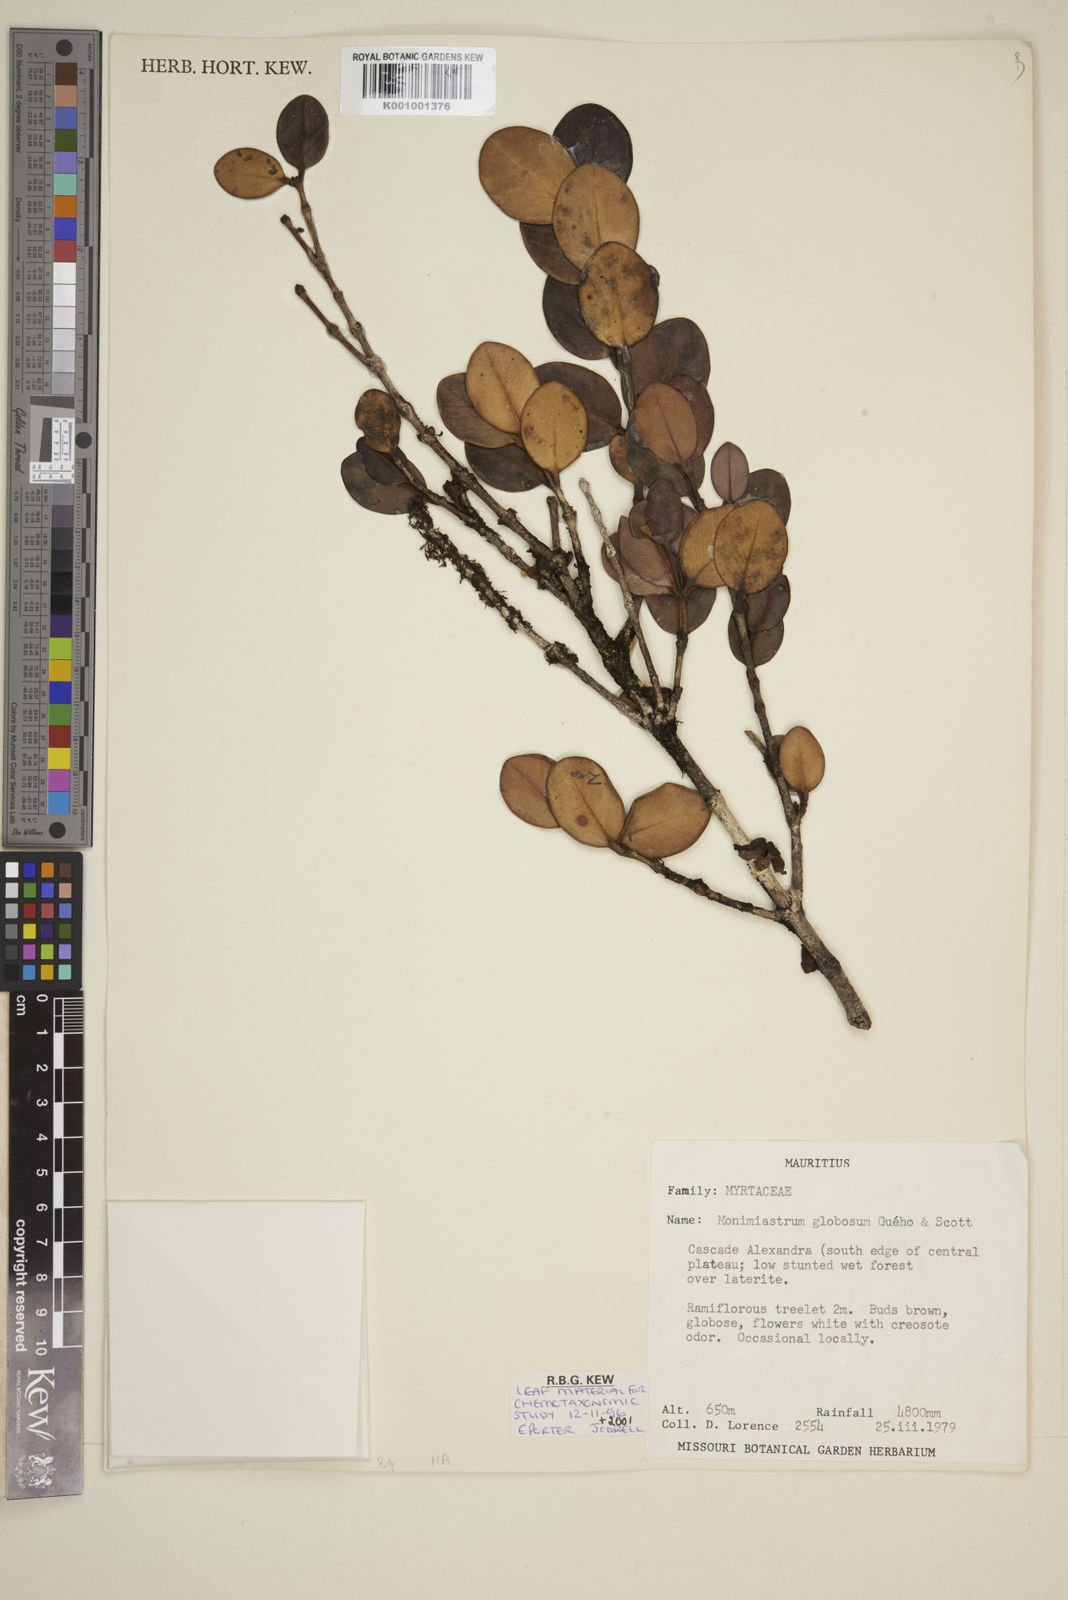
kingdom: Plantae
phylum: Tracheophyta
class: Magnoliopsida
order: Myrtales
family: Myrtaceae
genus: Eugenia
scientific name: Eugenia kanakana
